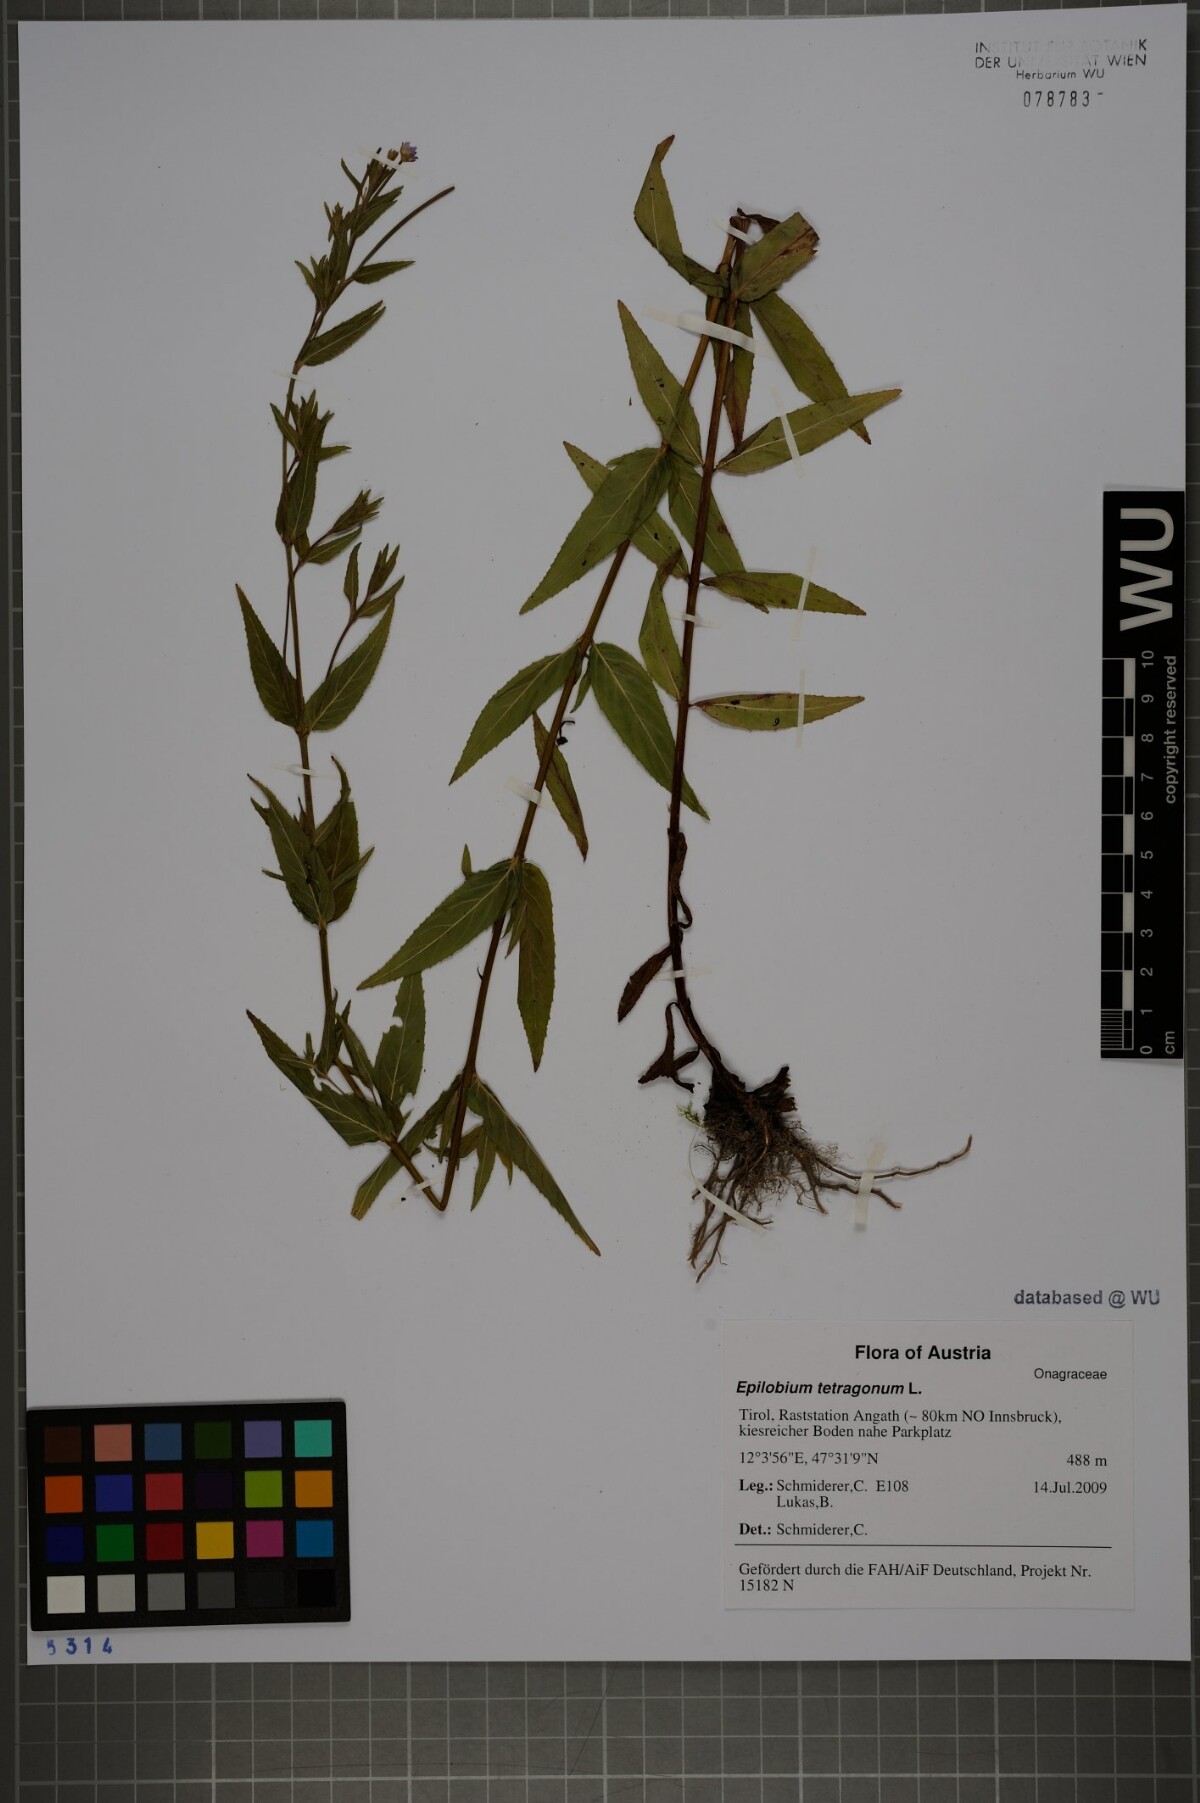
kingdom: Plantae
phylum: Tracheophyta
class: Magnoliopsida
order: Myrtales
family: Onagraceae
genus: Epilobium
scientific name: Epilobium tetragonum
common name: Square-stemmed willowherb
